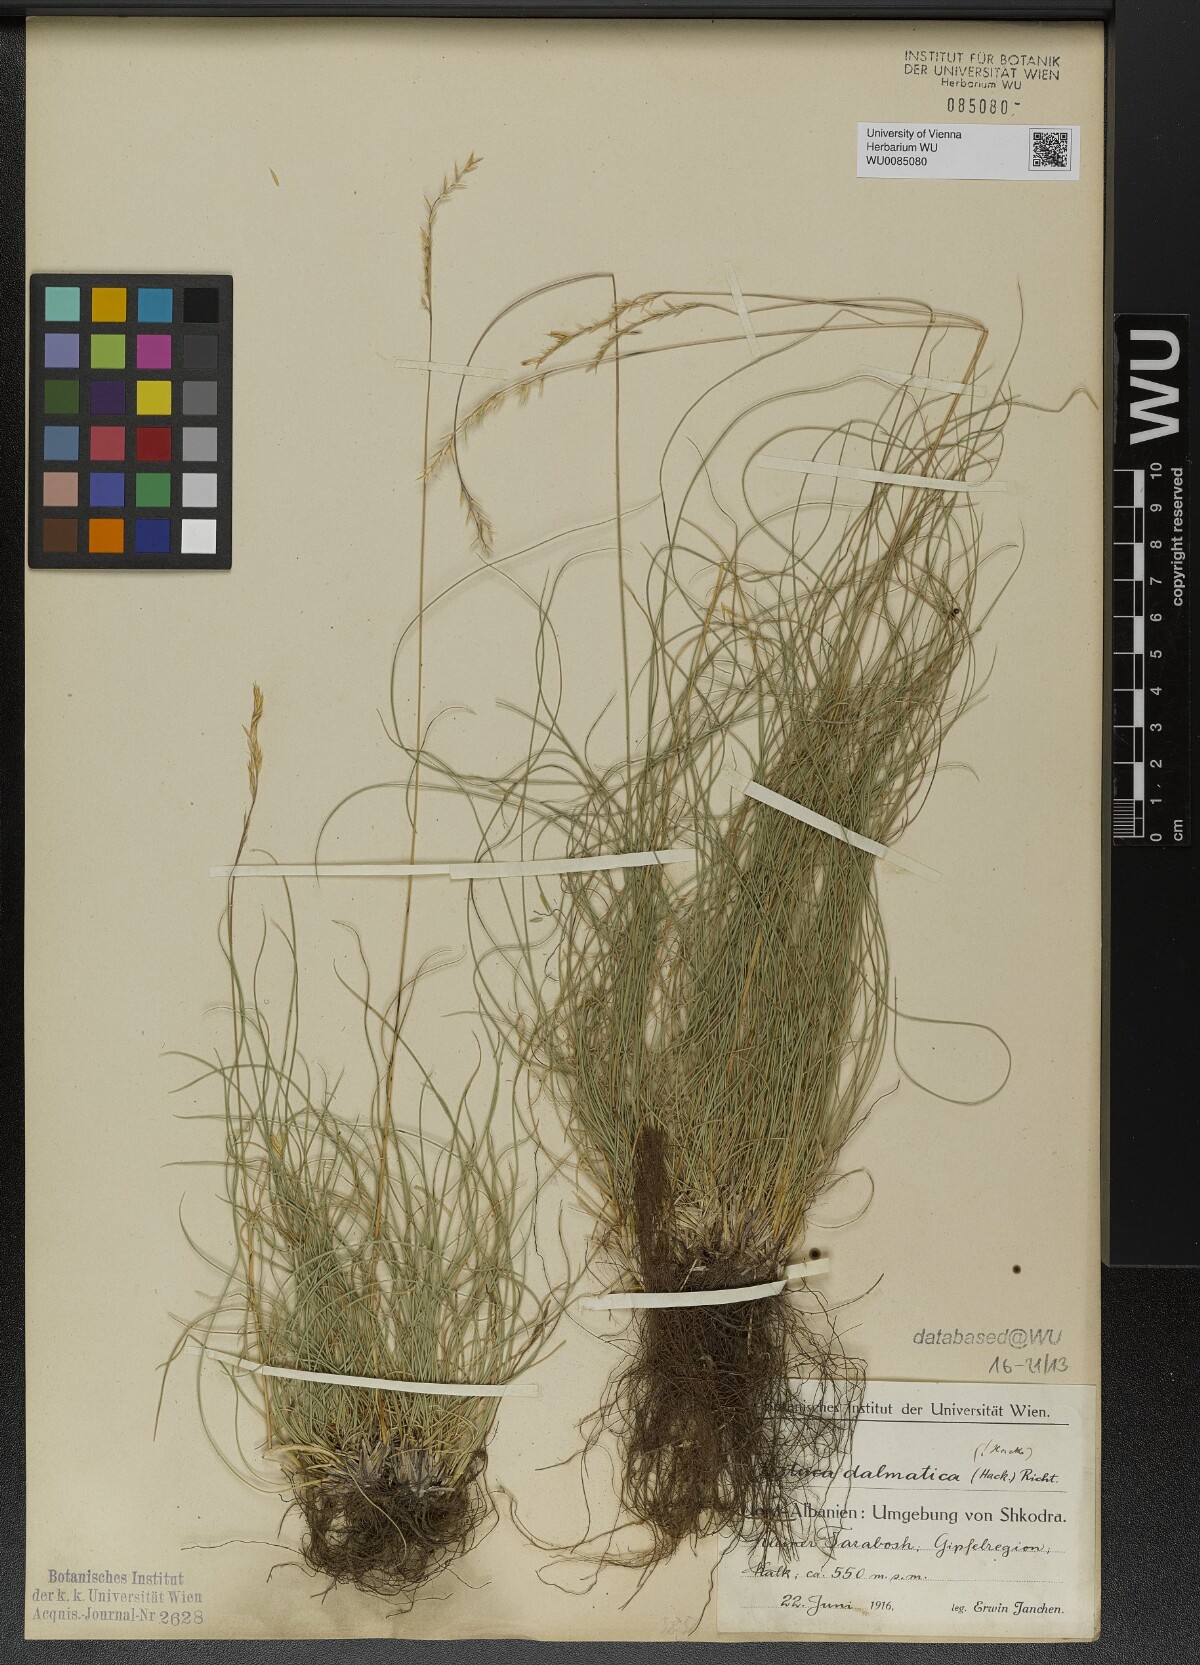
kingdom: Plantae
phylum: Tracheophyta
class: Liliopsida
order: Poales
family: Poaceae
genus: Festuca
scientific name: Festuca dalmatica
